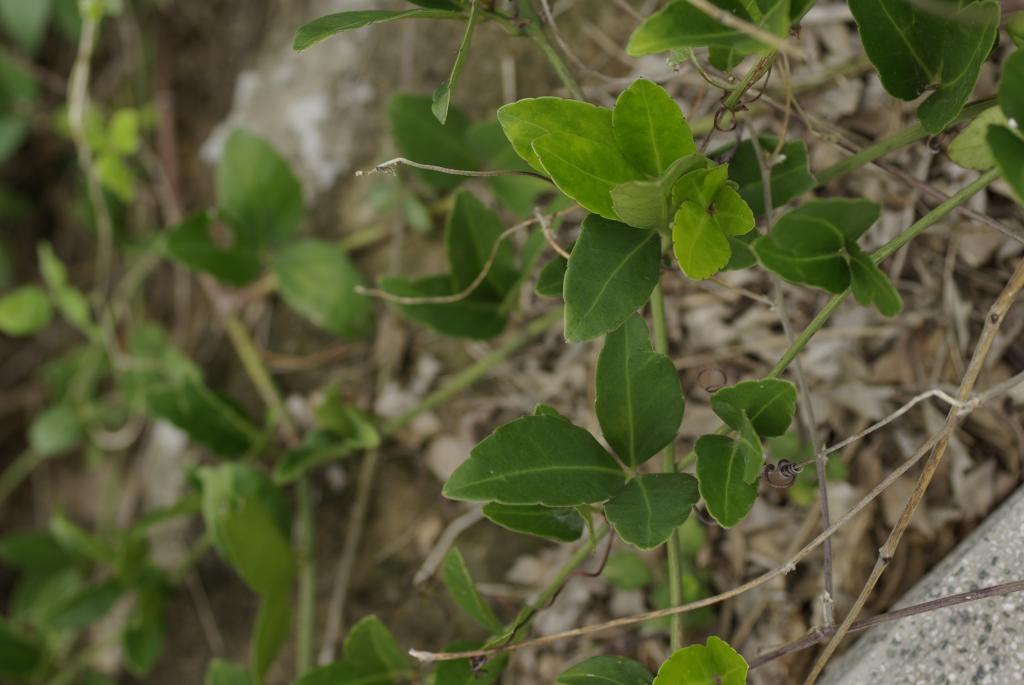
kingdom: Plantae
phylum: Tracheophyta
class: Magnoliopsida
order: Vitales
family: Vitaceae
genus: Tetrastigma
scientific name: Tetrastigma formosanum
